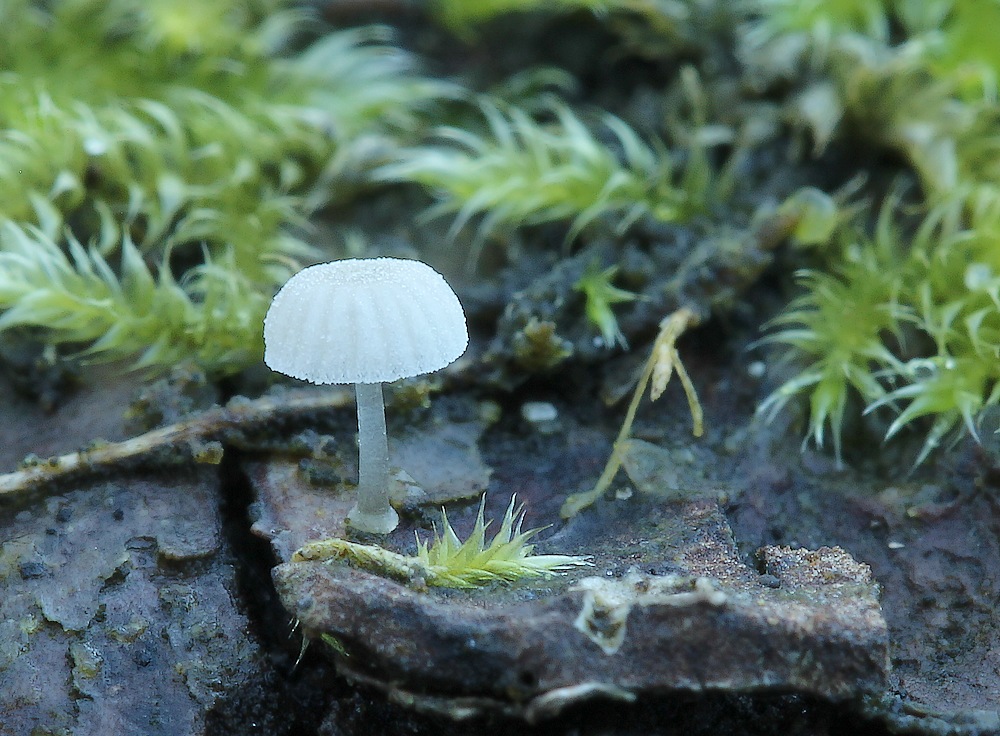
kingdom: Fungi
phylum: Basidiomycota
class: Agaricomycetes
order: Agaricales
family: Mycenaceae
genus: Mycena
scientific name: Mycena tenerrima
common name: pudret huesvamp
